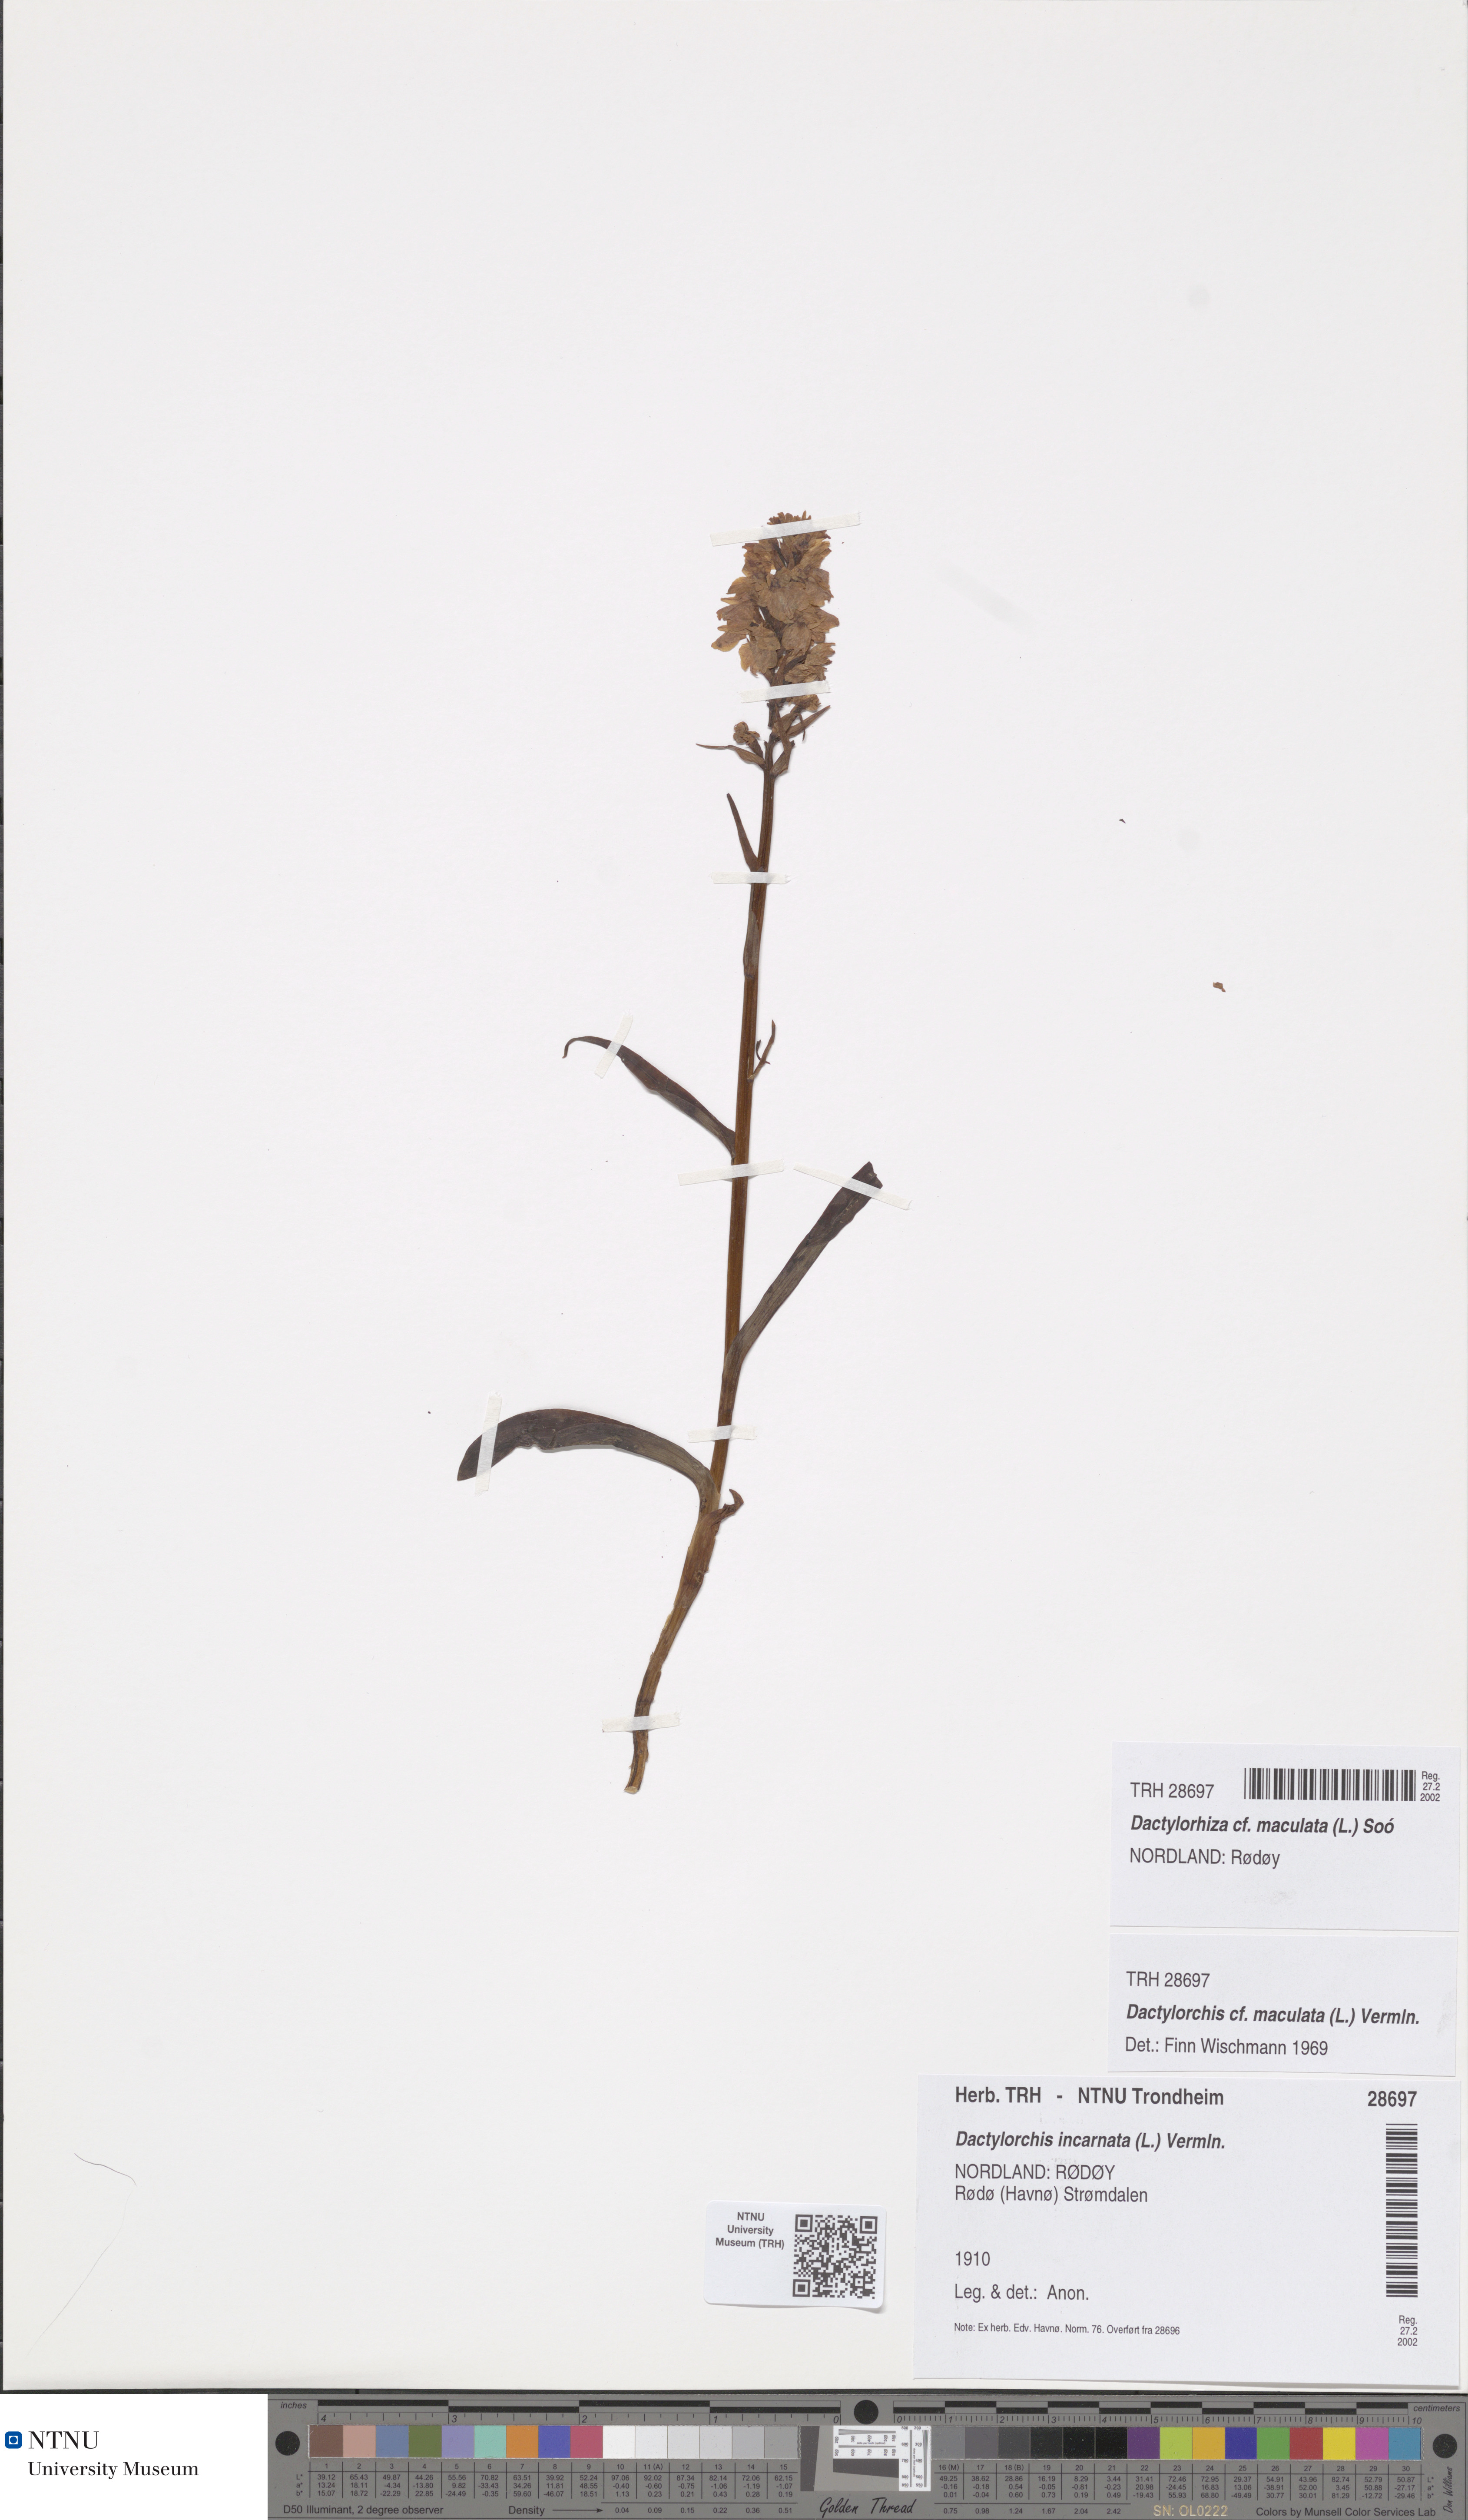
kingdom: Plantae
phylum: Tracheophyta
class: Liliopsida
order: Asparagales
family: Orchidaceae
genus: Dactylorhiza
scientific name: Dactylorhiza maculata
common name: Heath spotted-orchid
